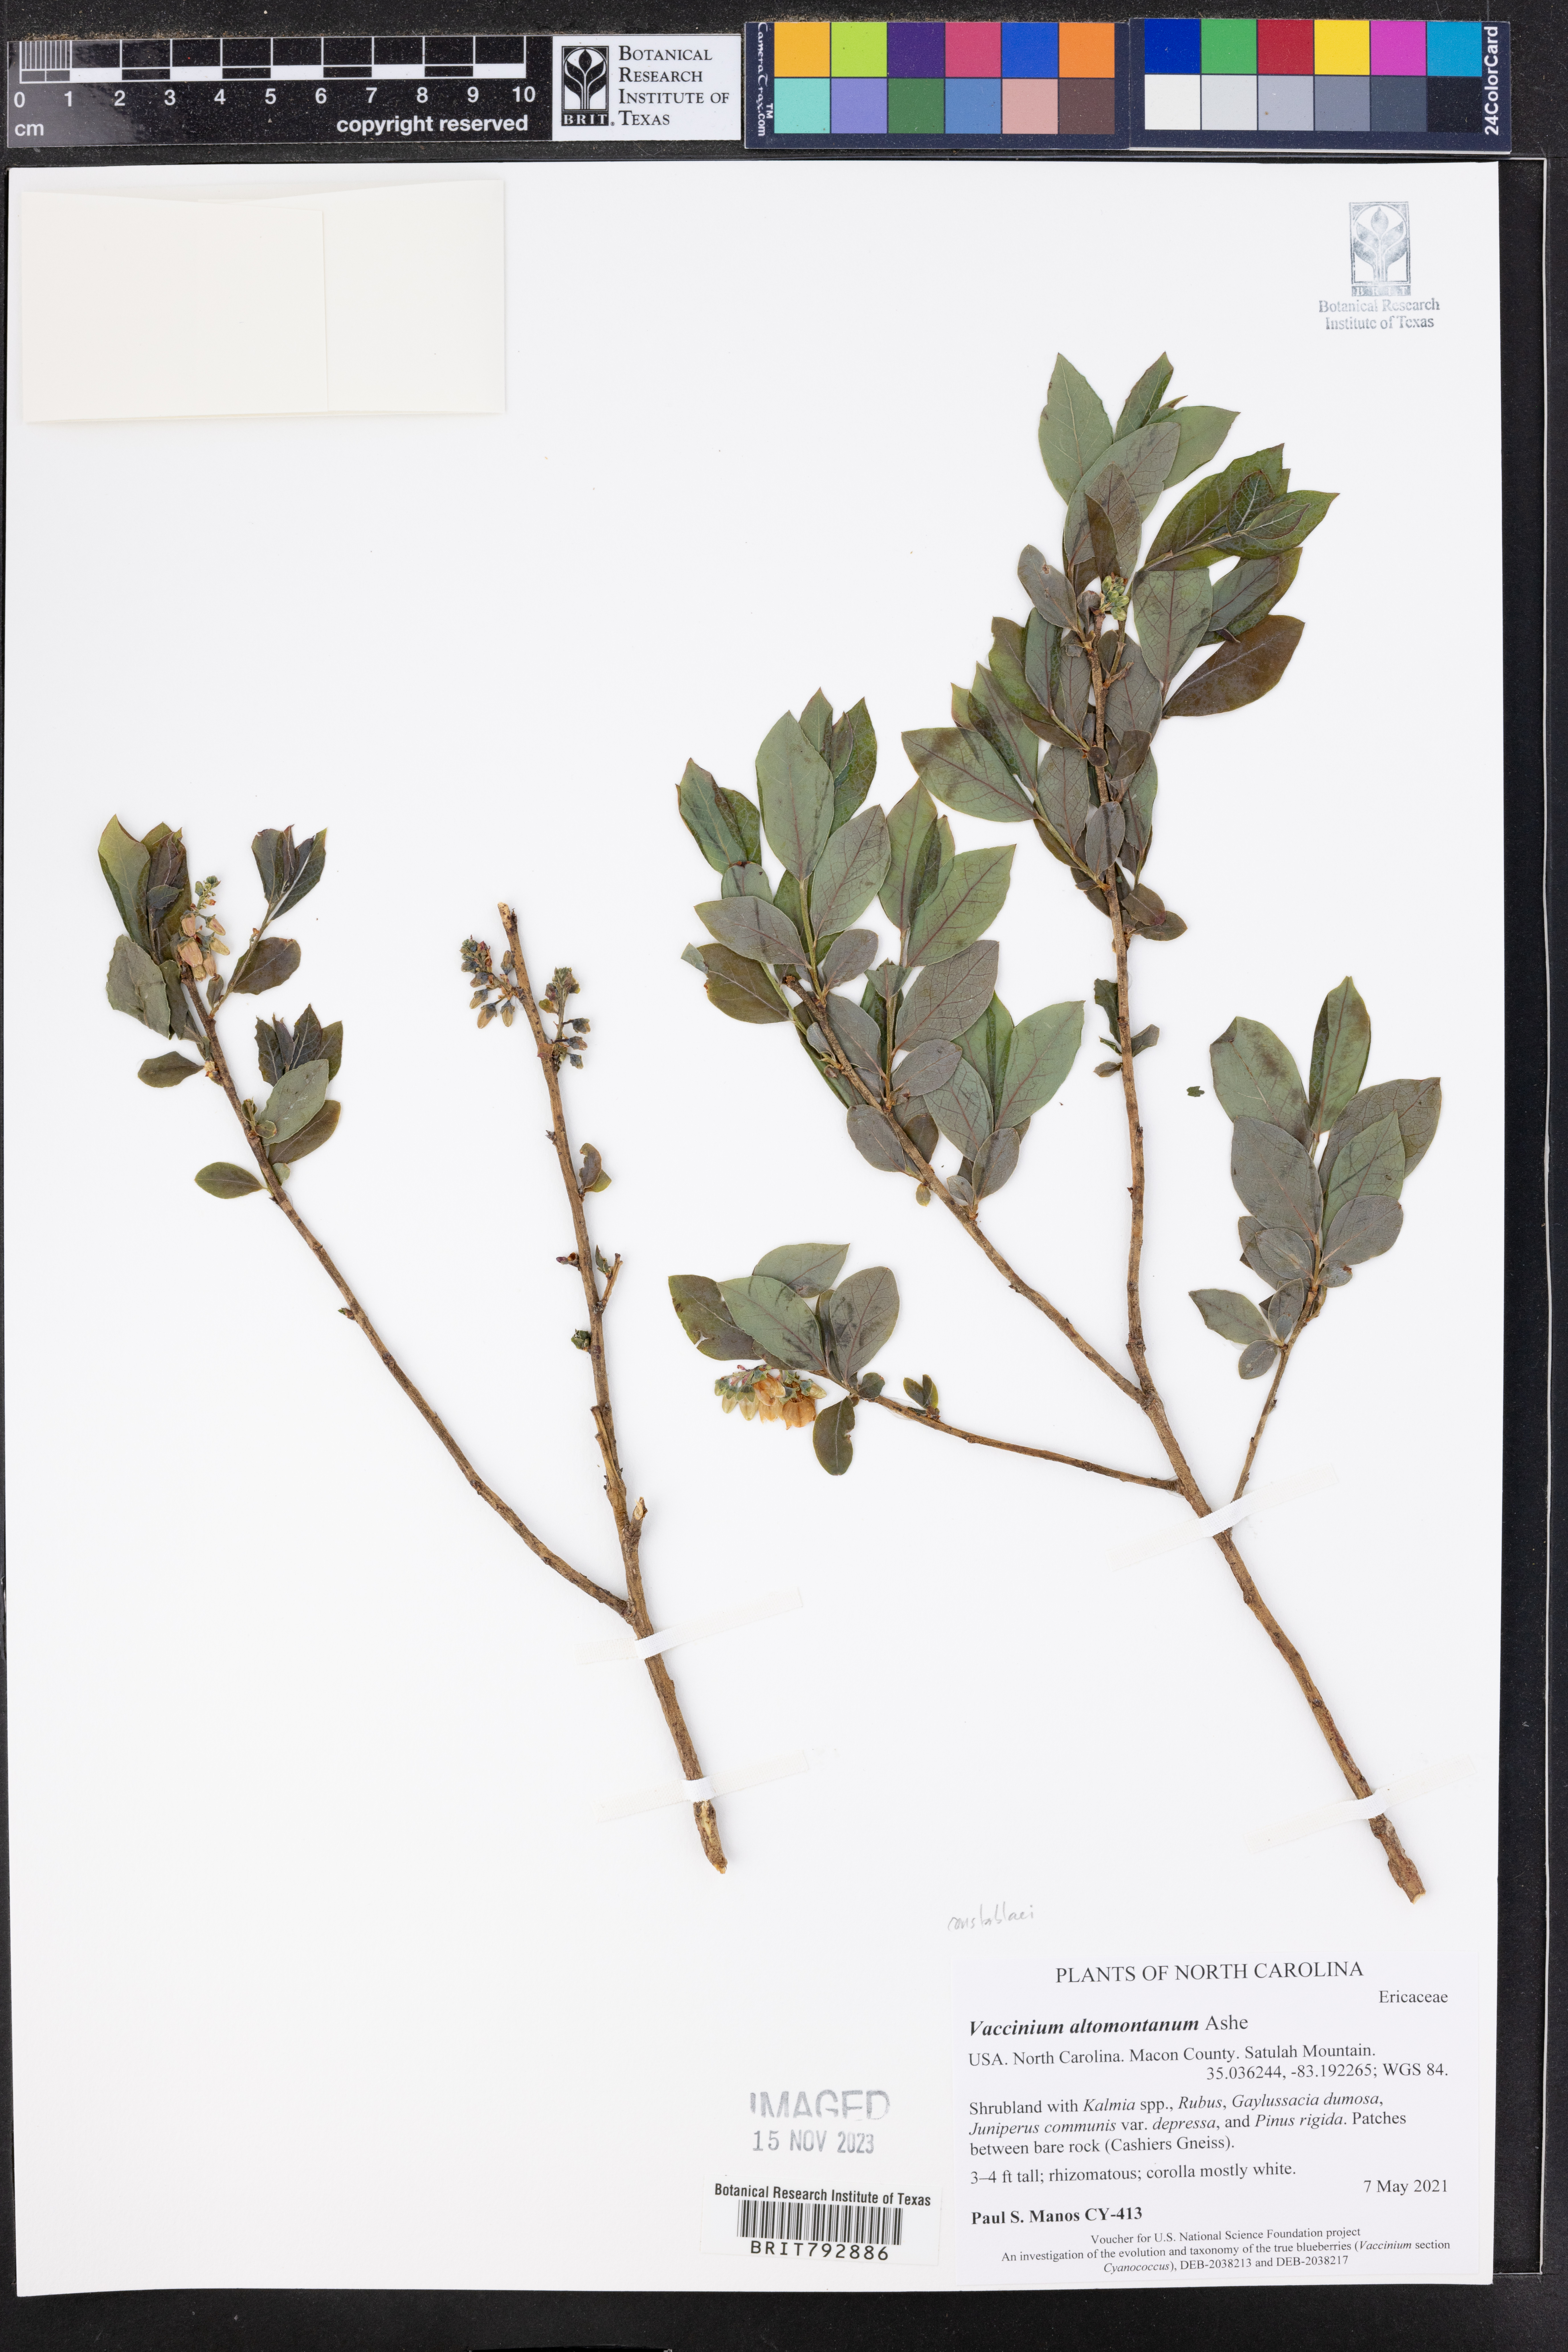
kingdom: Plantae
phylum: Tracheophyta
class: Magnoliopsida
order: Ericales
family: Ericaceae
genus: Vaccinium
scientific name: Vaccinium pallidum
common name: Blue ridge blueberry
